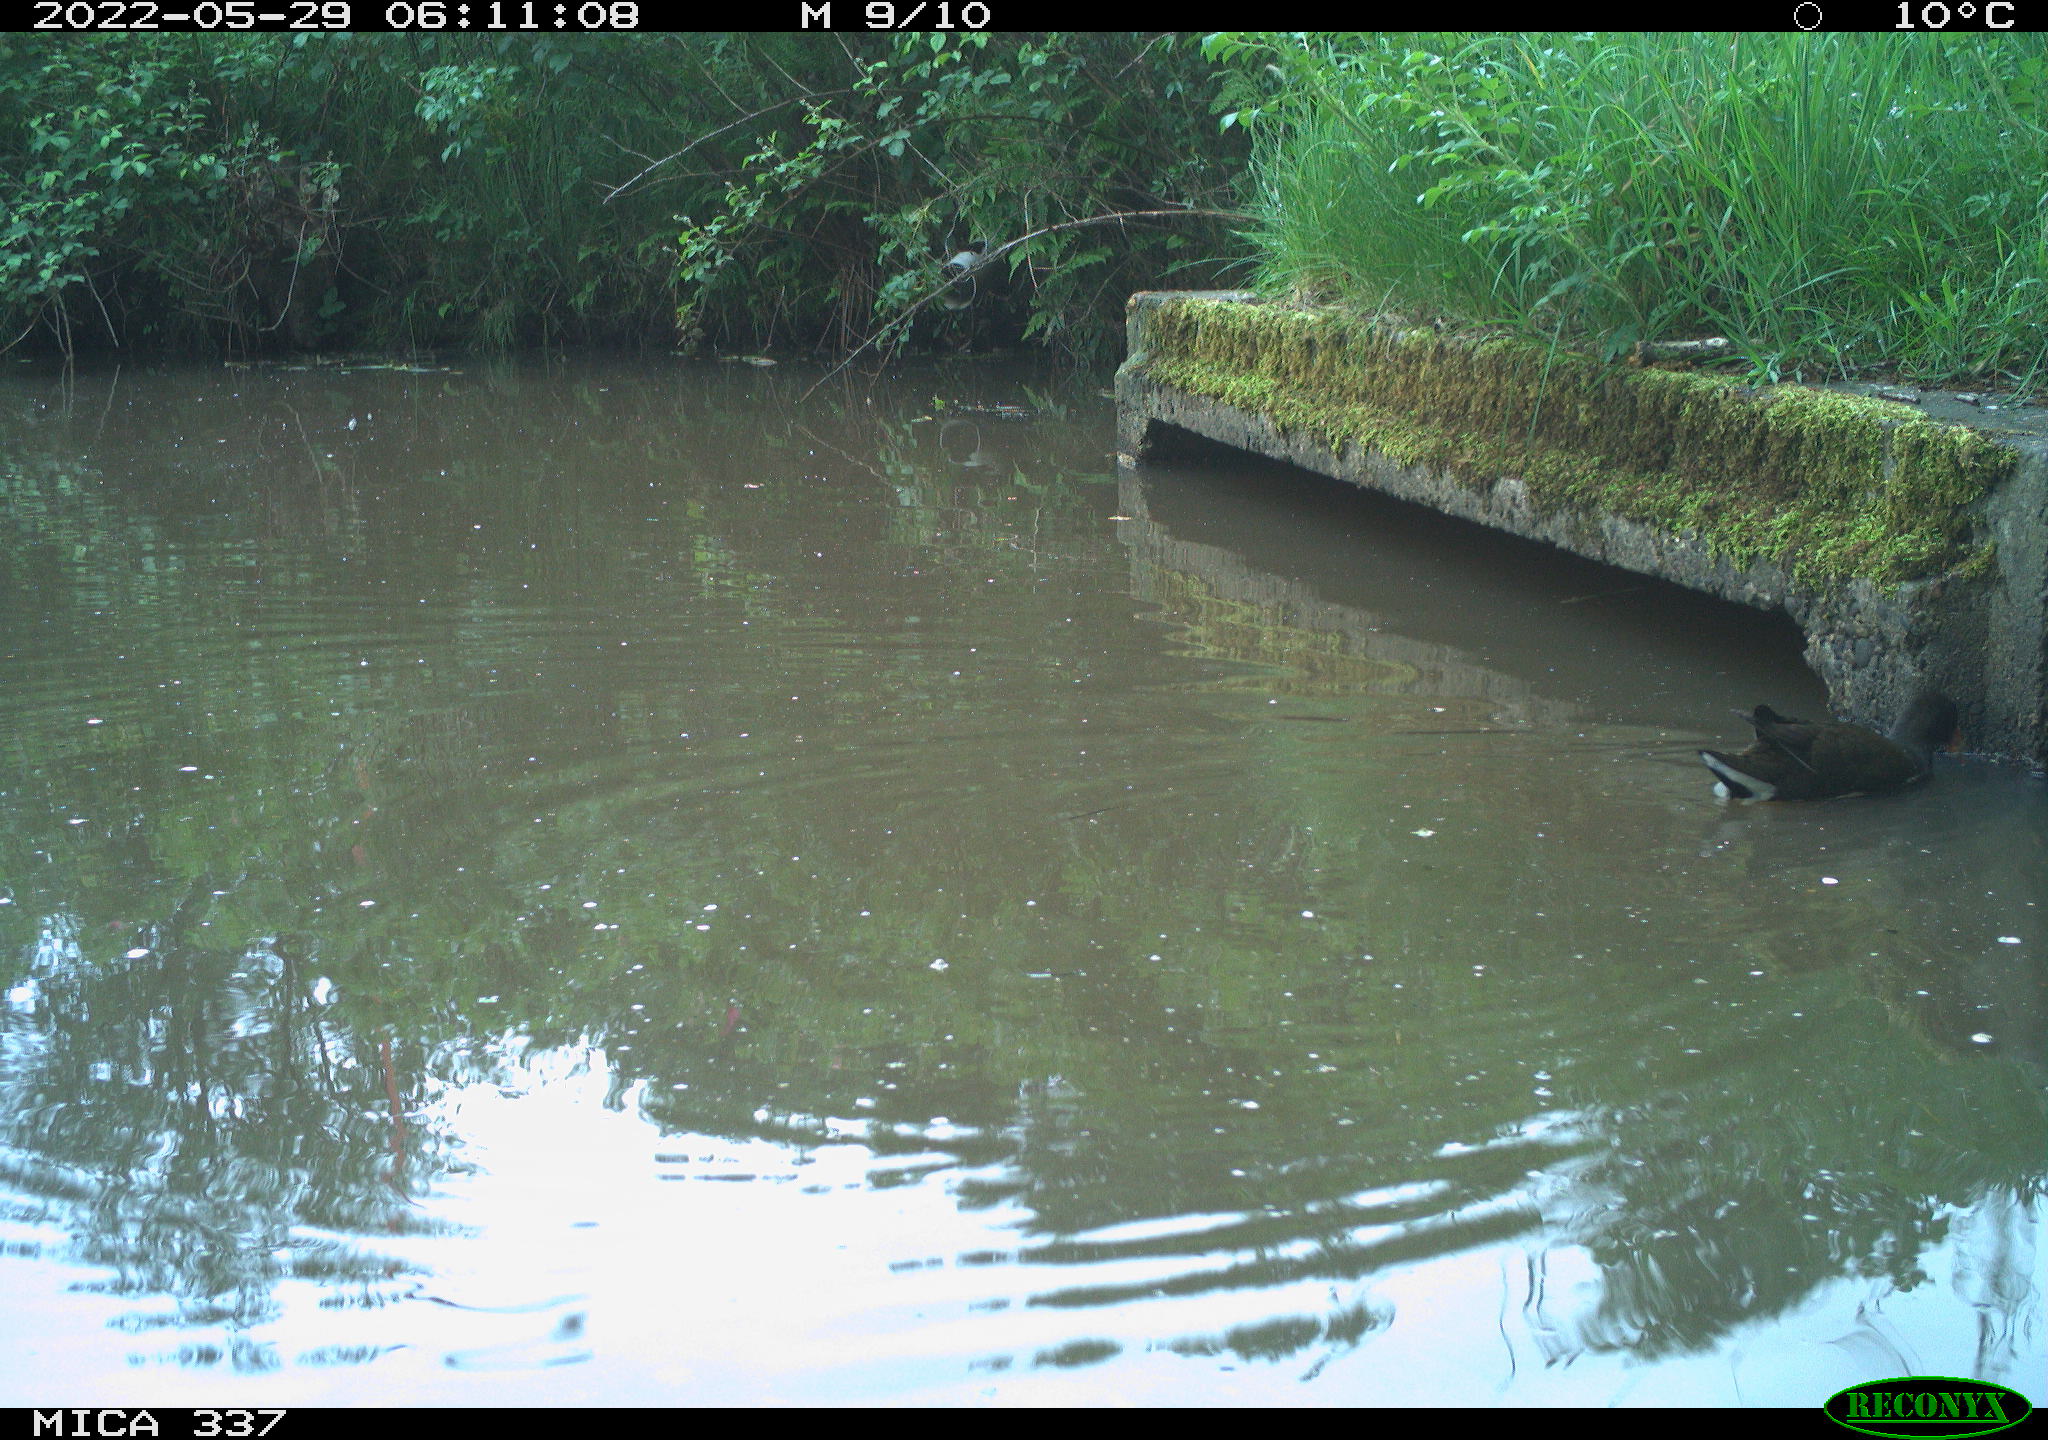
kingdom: Animalia
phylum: Chordata
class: Aves
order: Gruiformes
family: Rallidae
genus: Gallinula
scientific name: Gallinula chloropus
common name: Common moorhen
